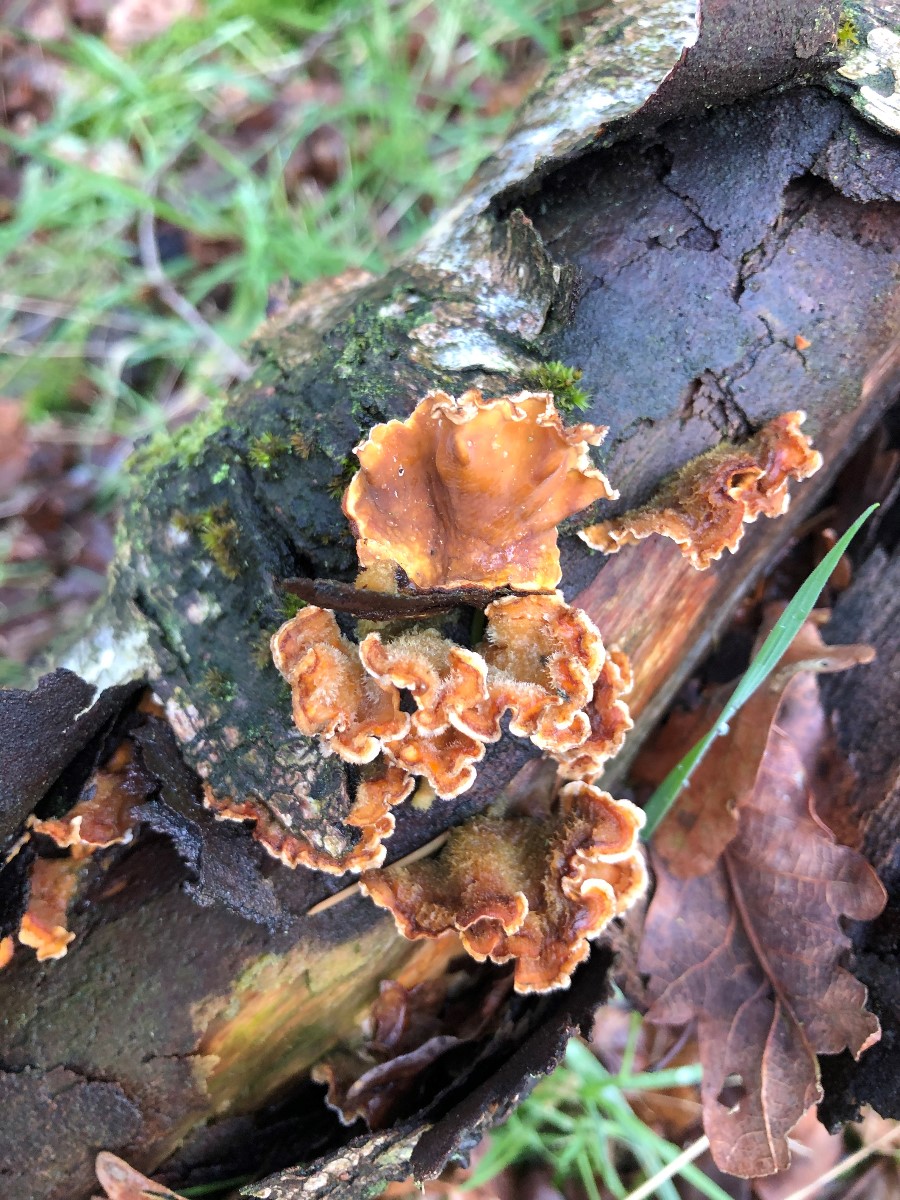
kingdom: Fungi
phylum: Basidiomycota
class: Agaricomycetes
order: Russulales
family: Stereaceae
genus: Stereum
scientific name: Stereum hirsutum
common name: håret lædersvamp
